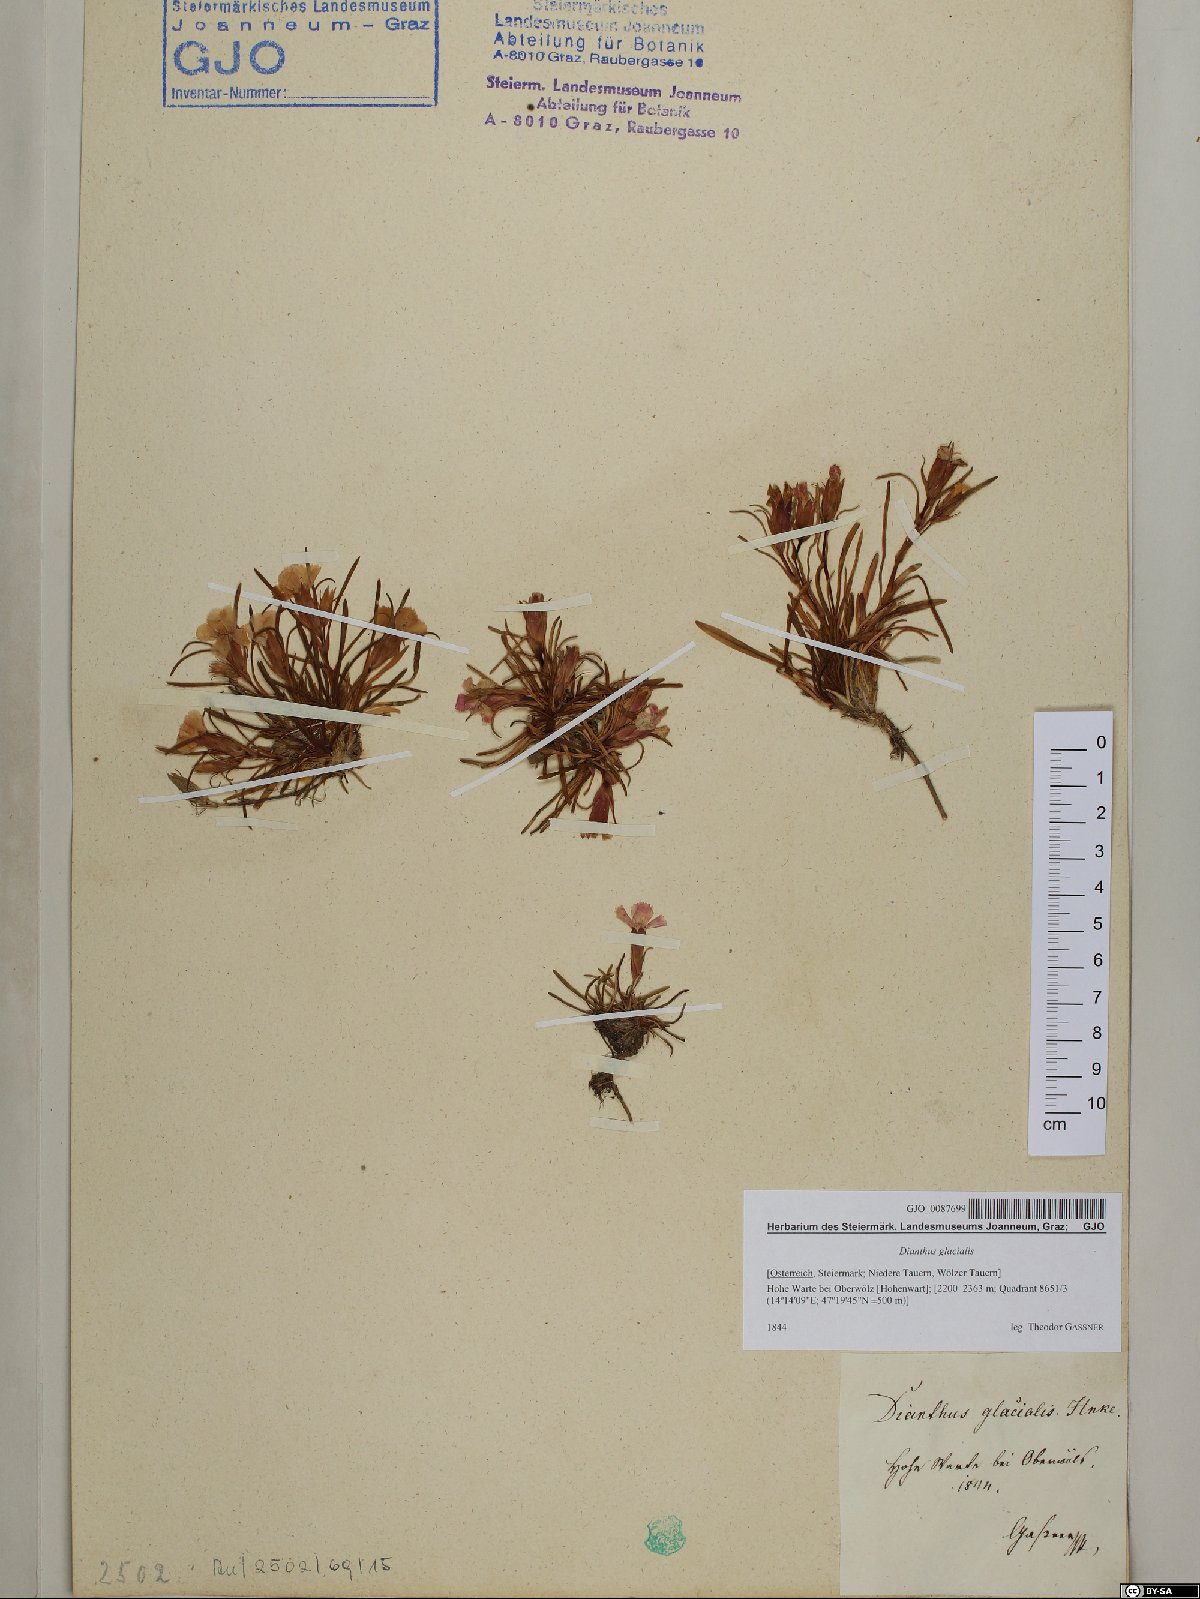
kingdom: Plantae
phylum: Tracheophyta
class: Magnoliopsida
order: Caryophyllales
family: Caryophyllaceae
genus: Dianthus
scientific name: Dianthus glacialis
